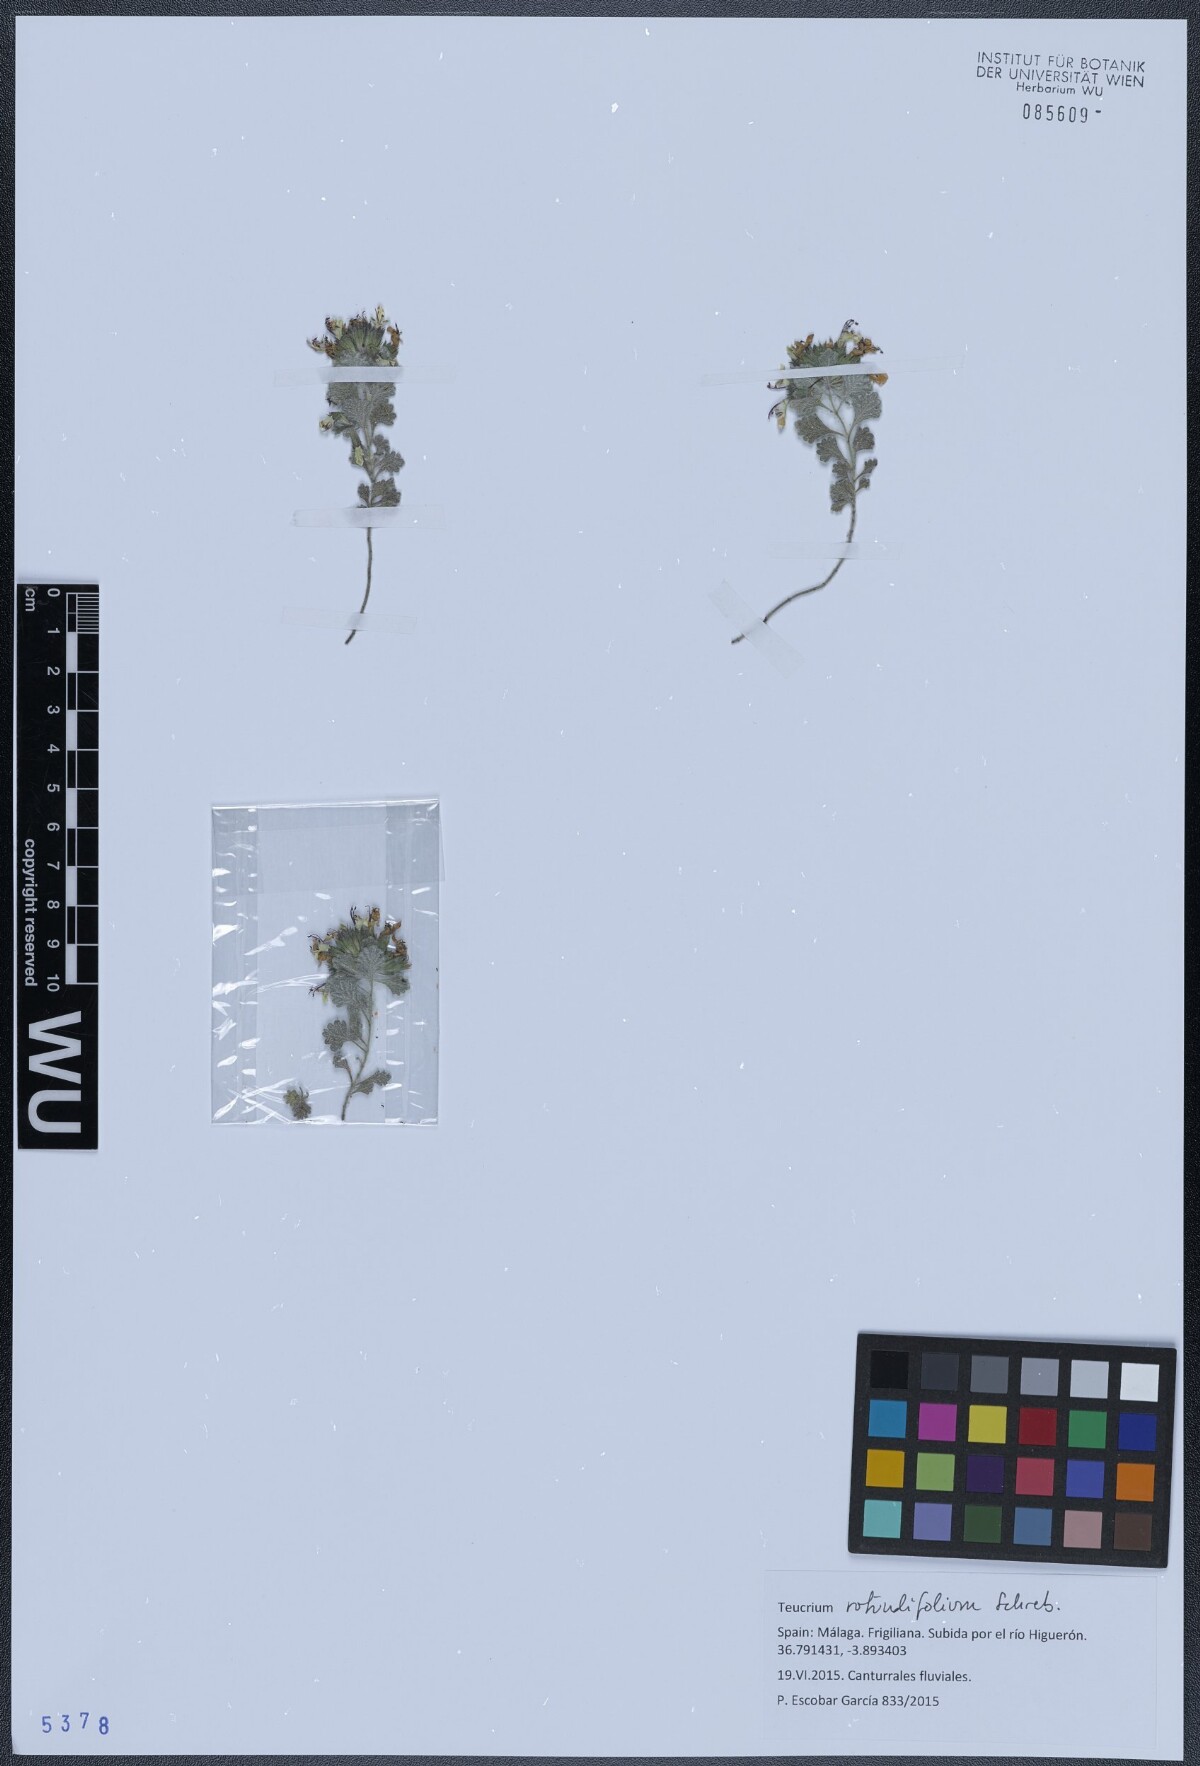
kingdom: Plantae
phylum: Tracheophyta
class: Magnoliopsida
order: Lamiales
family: Lamiaceae
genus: Teucrium
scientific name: Teucrium rotundifolium
